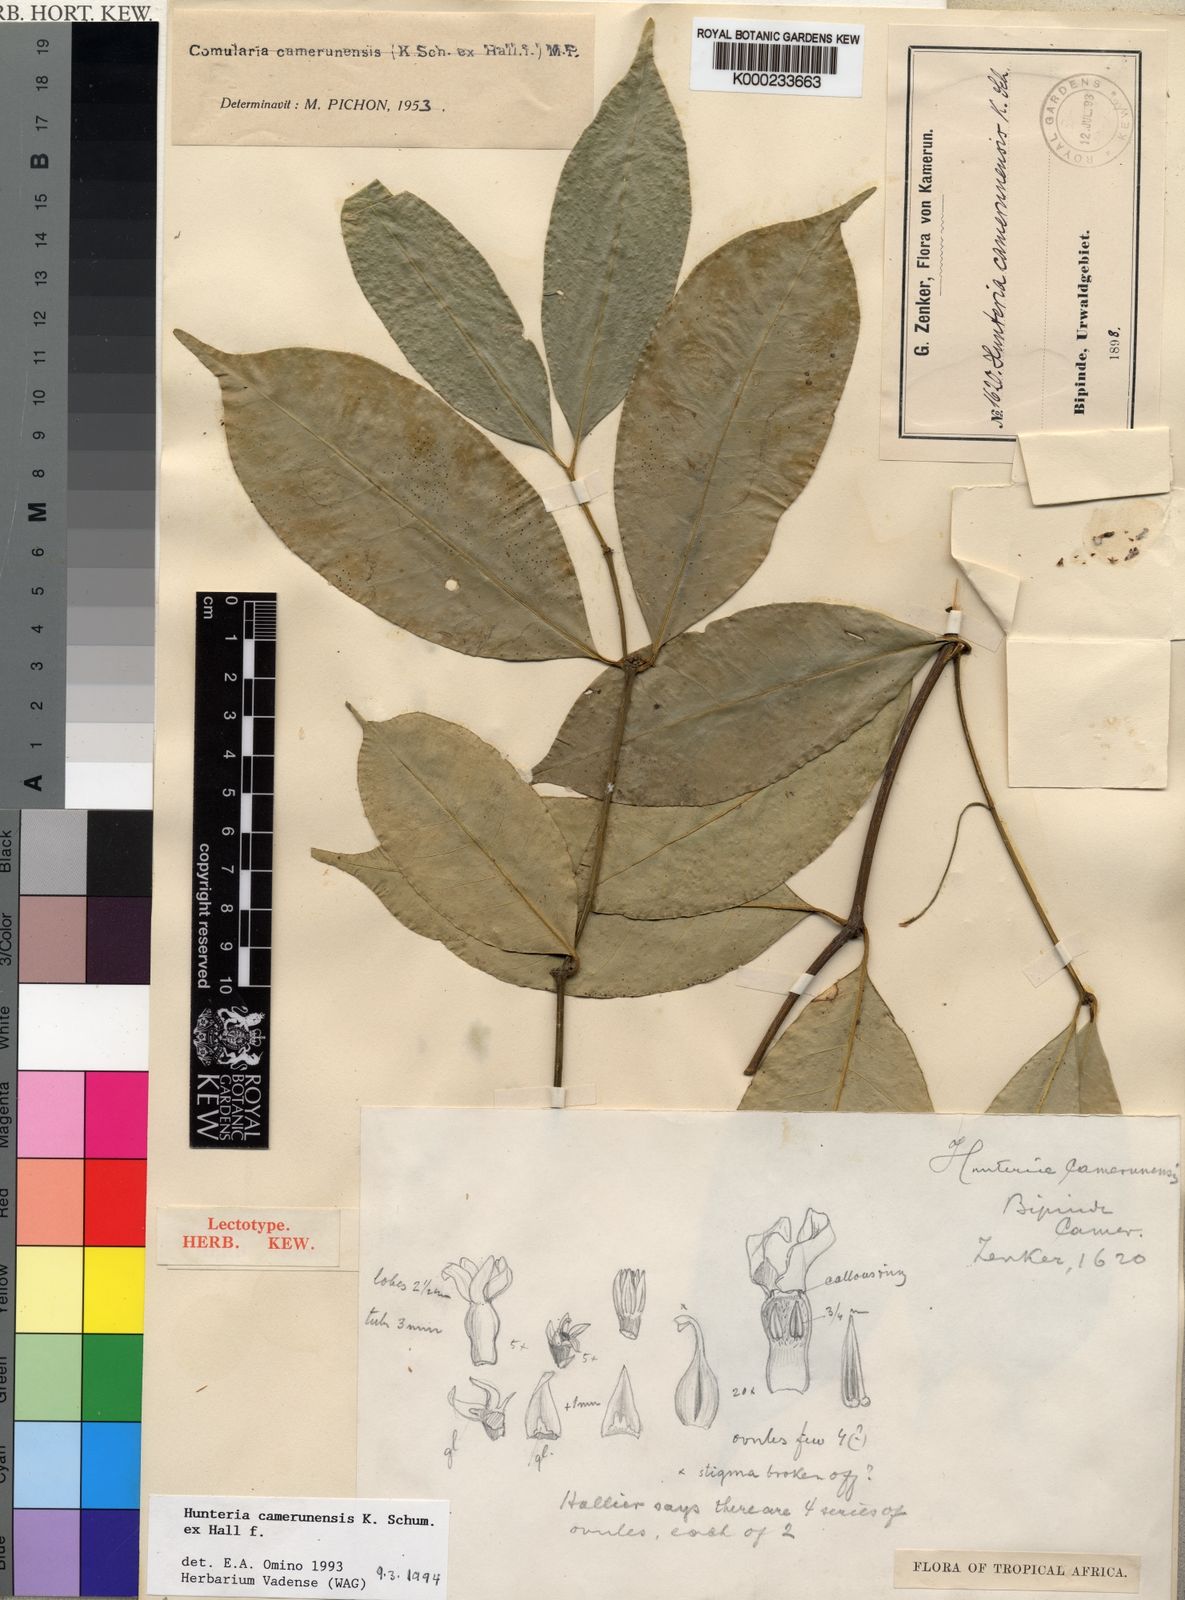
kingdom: Plantae
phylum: Tracheophyta
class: Magnoliopsida
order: Gentianales
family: Apocynaceae
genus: Hunteria
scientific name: Hunteria camerunensis
